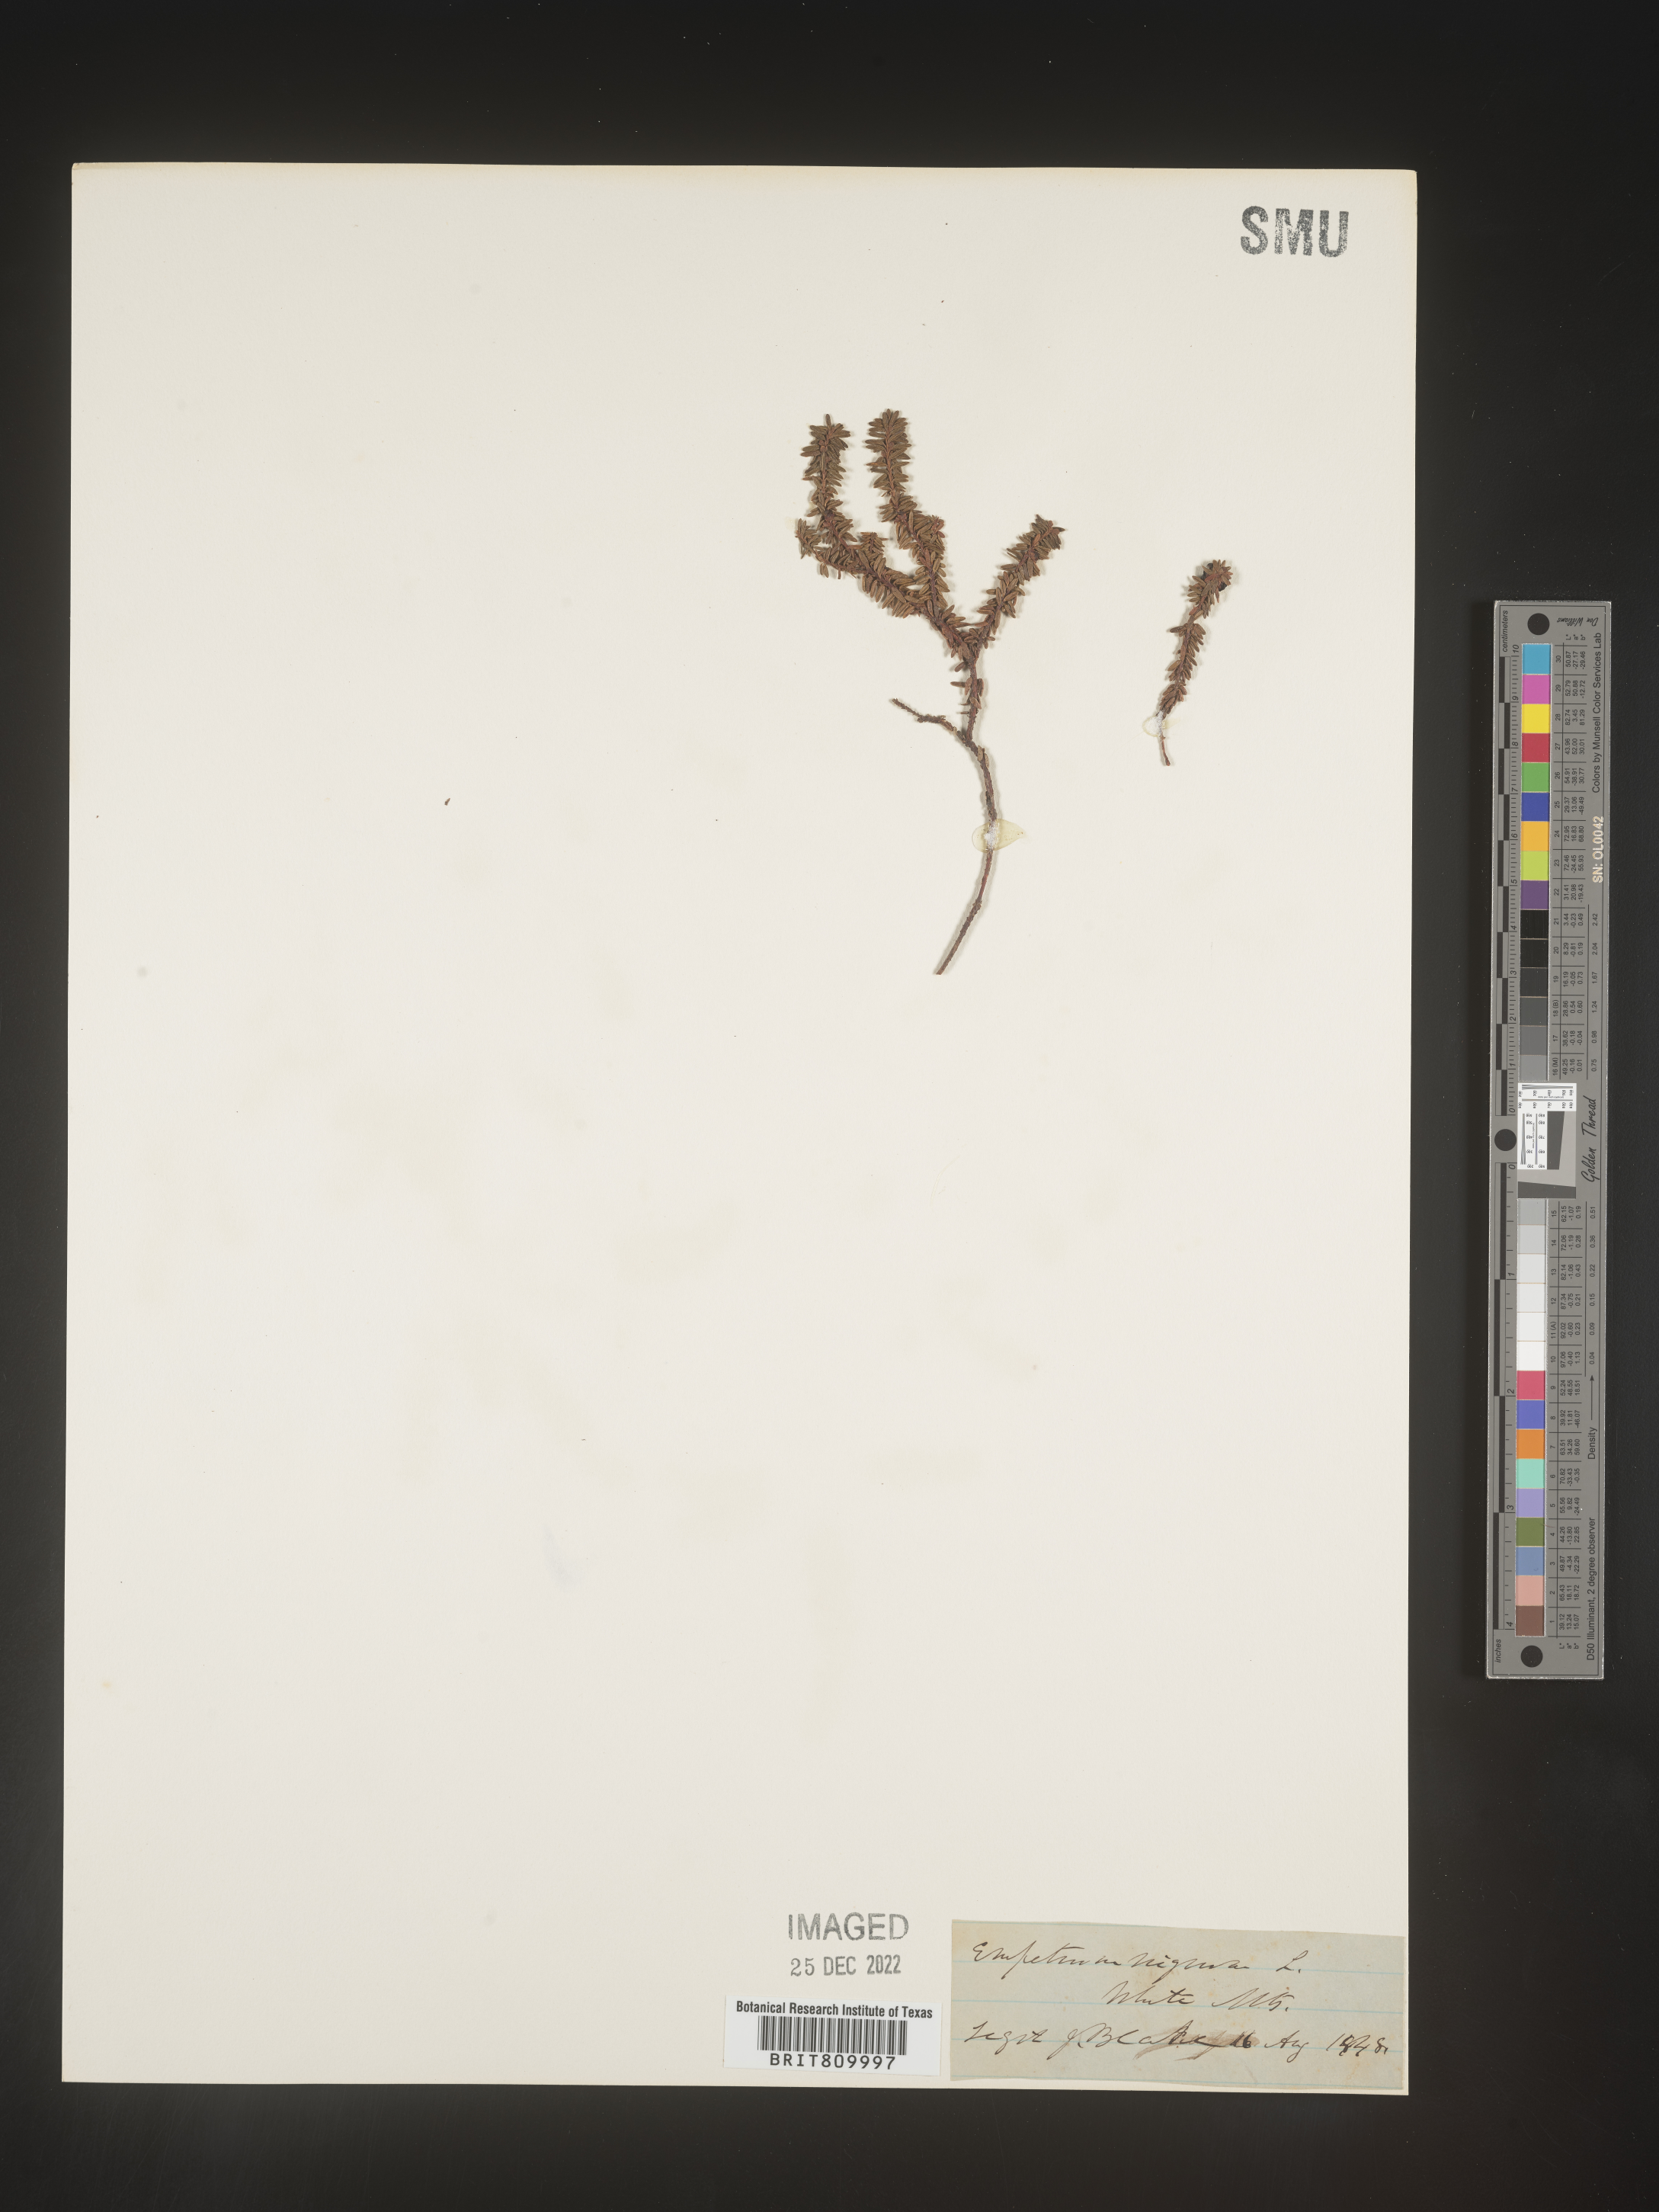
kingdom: Plantae
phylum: Tracheophyta
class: Magnoliopsida
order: Ericales
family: Ericaceae
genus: Empetrum
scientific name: Empetrum
